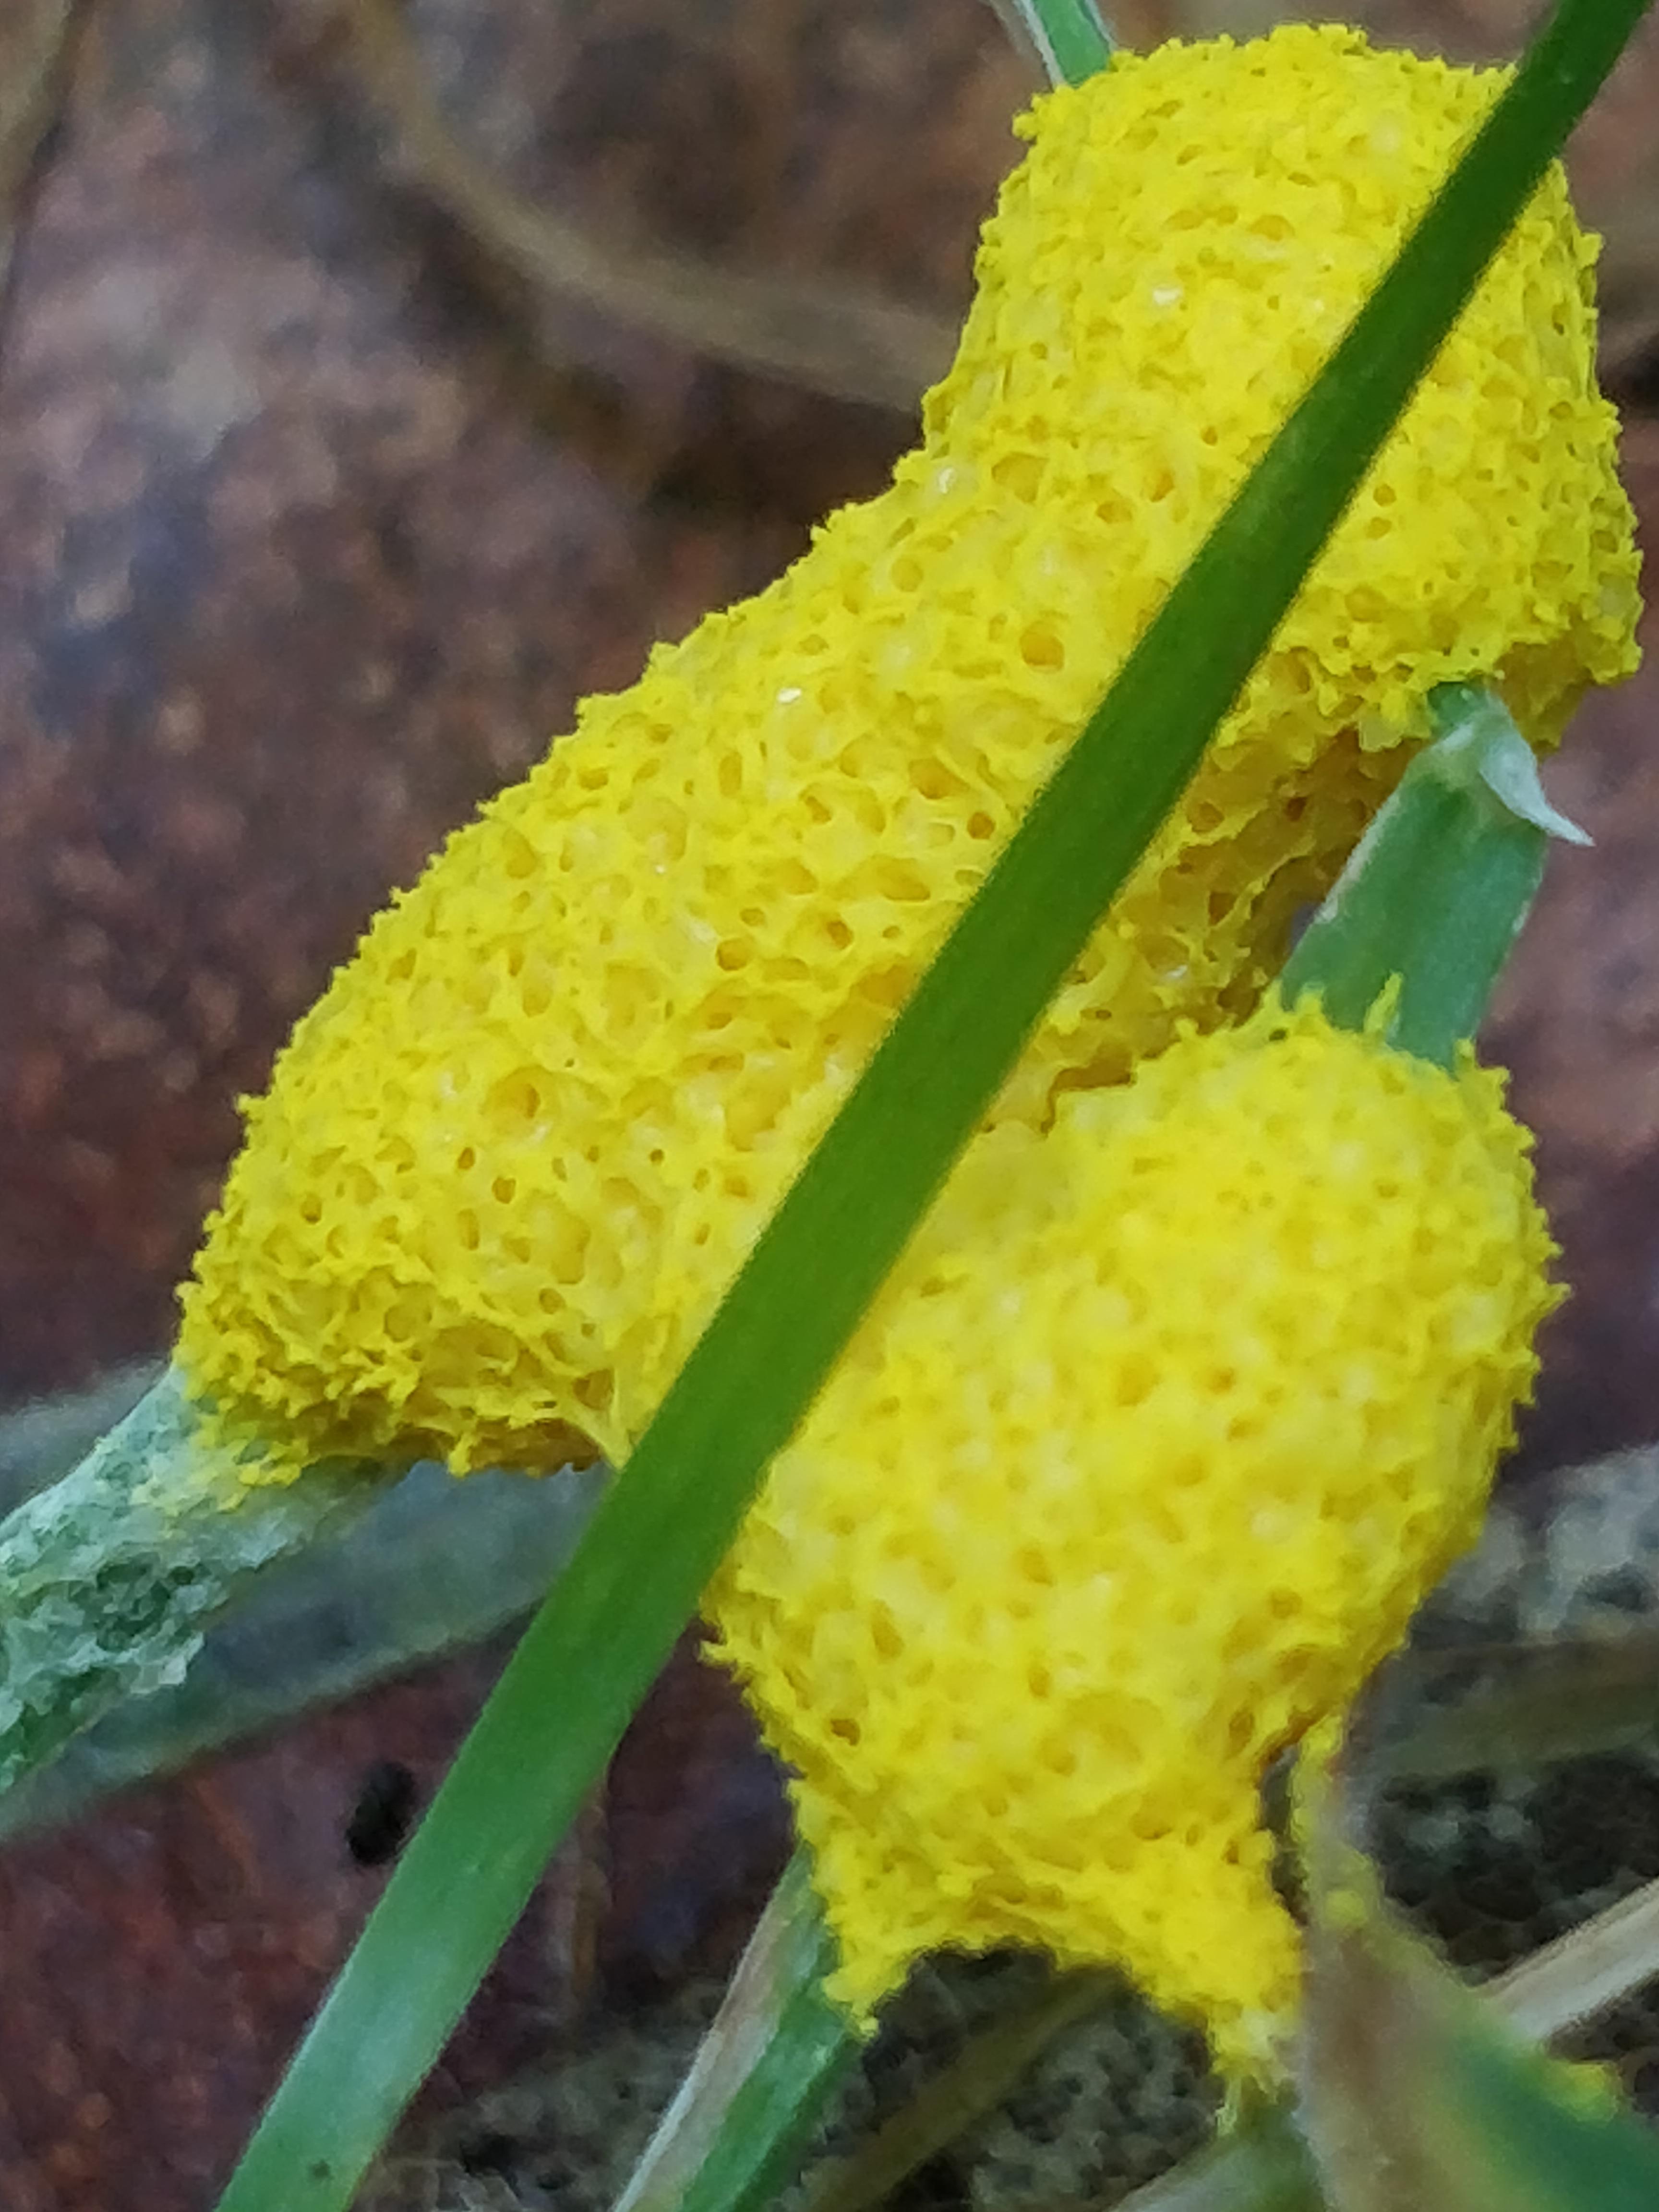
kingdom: Protozoa
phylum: Mycetozoa
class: Myxomycetes
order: Physarales
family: Physaraceae
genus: Fuligo
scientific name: Fuligo septica
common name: gul troldsmør
